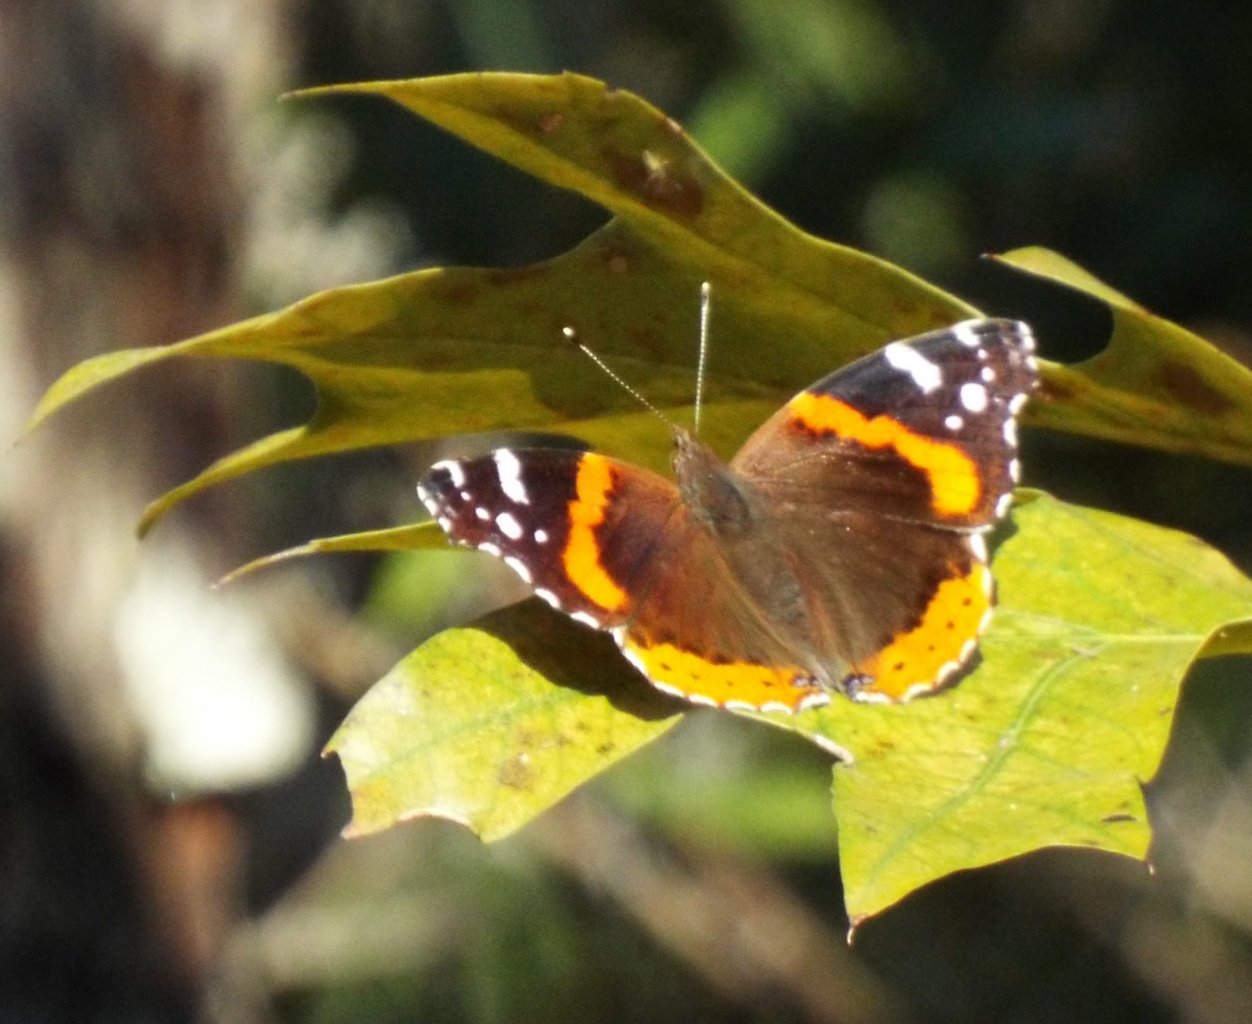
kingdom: Animalia
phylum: Arthropoda
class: Insecta
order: Lepidoptera
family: Nymphalidae
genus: Vanessa
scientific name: Vanessa atalanta
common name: Red Admiral
